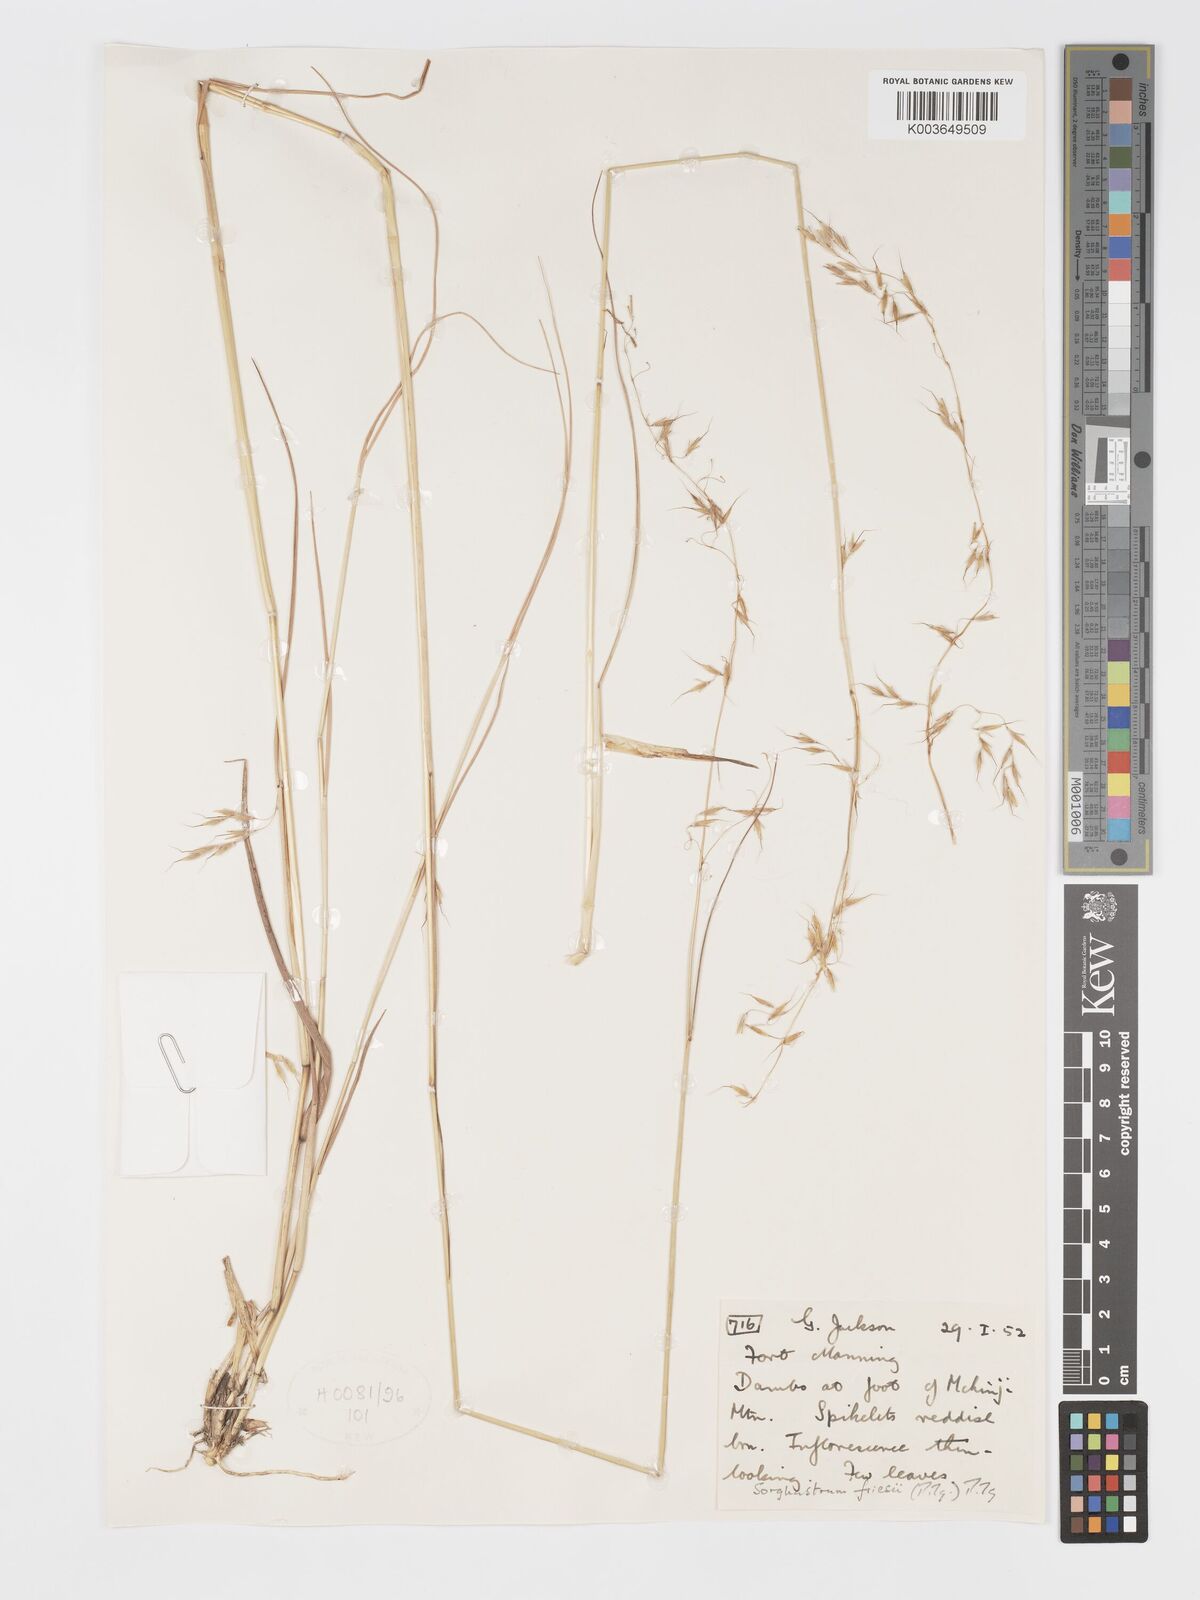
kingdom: Plantae
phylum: Tracheophyta
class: Liliopsida
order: Poales
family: Poaceae
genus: Sorghastrum
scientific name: Sorghastrum nudipes
